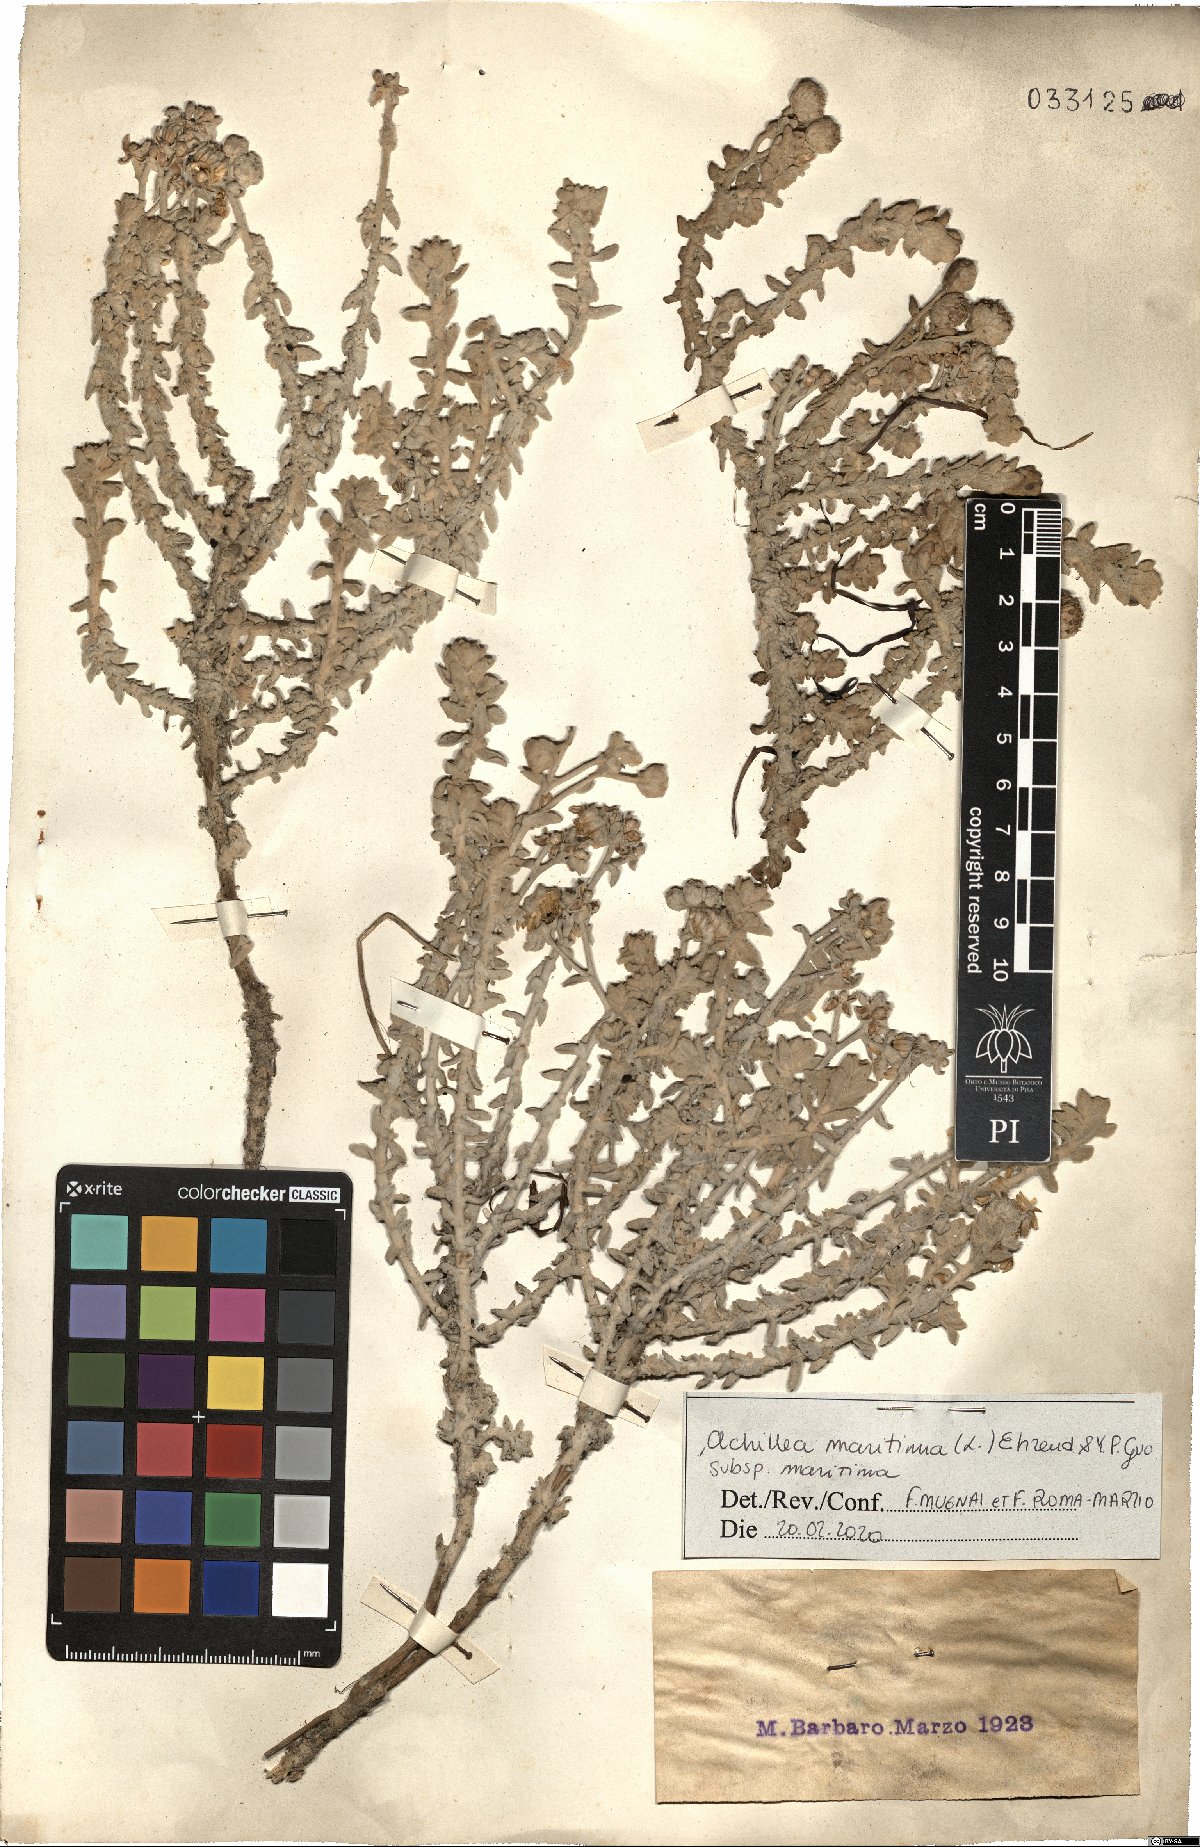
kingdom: Plantae
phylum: Tracheophyta
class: Magnoliopsida
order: Asterales
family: Asteraceae
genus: Achillea
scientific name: Achillea maritima
